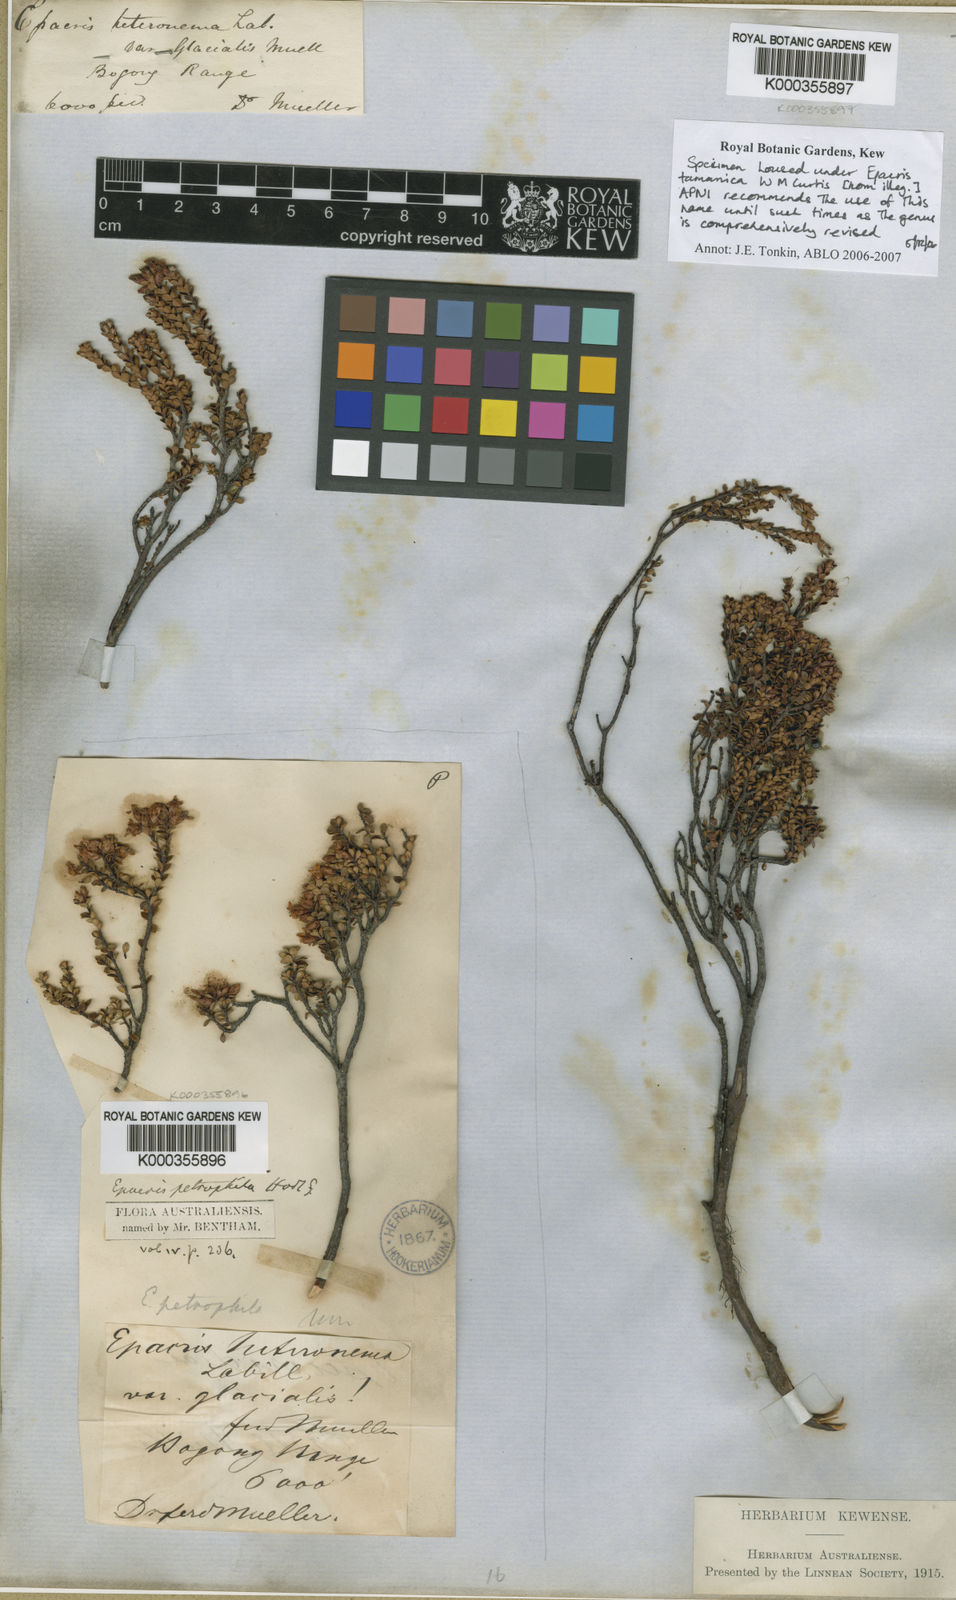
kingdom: Plantae
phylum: Tracheophyta
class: Magnoliopsida
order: Ericales
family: Ericaceae
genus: Epacris
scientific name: Epacris serpyllifolia
